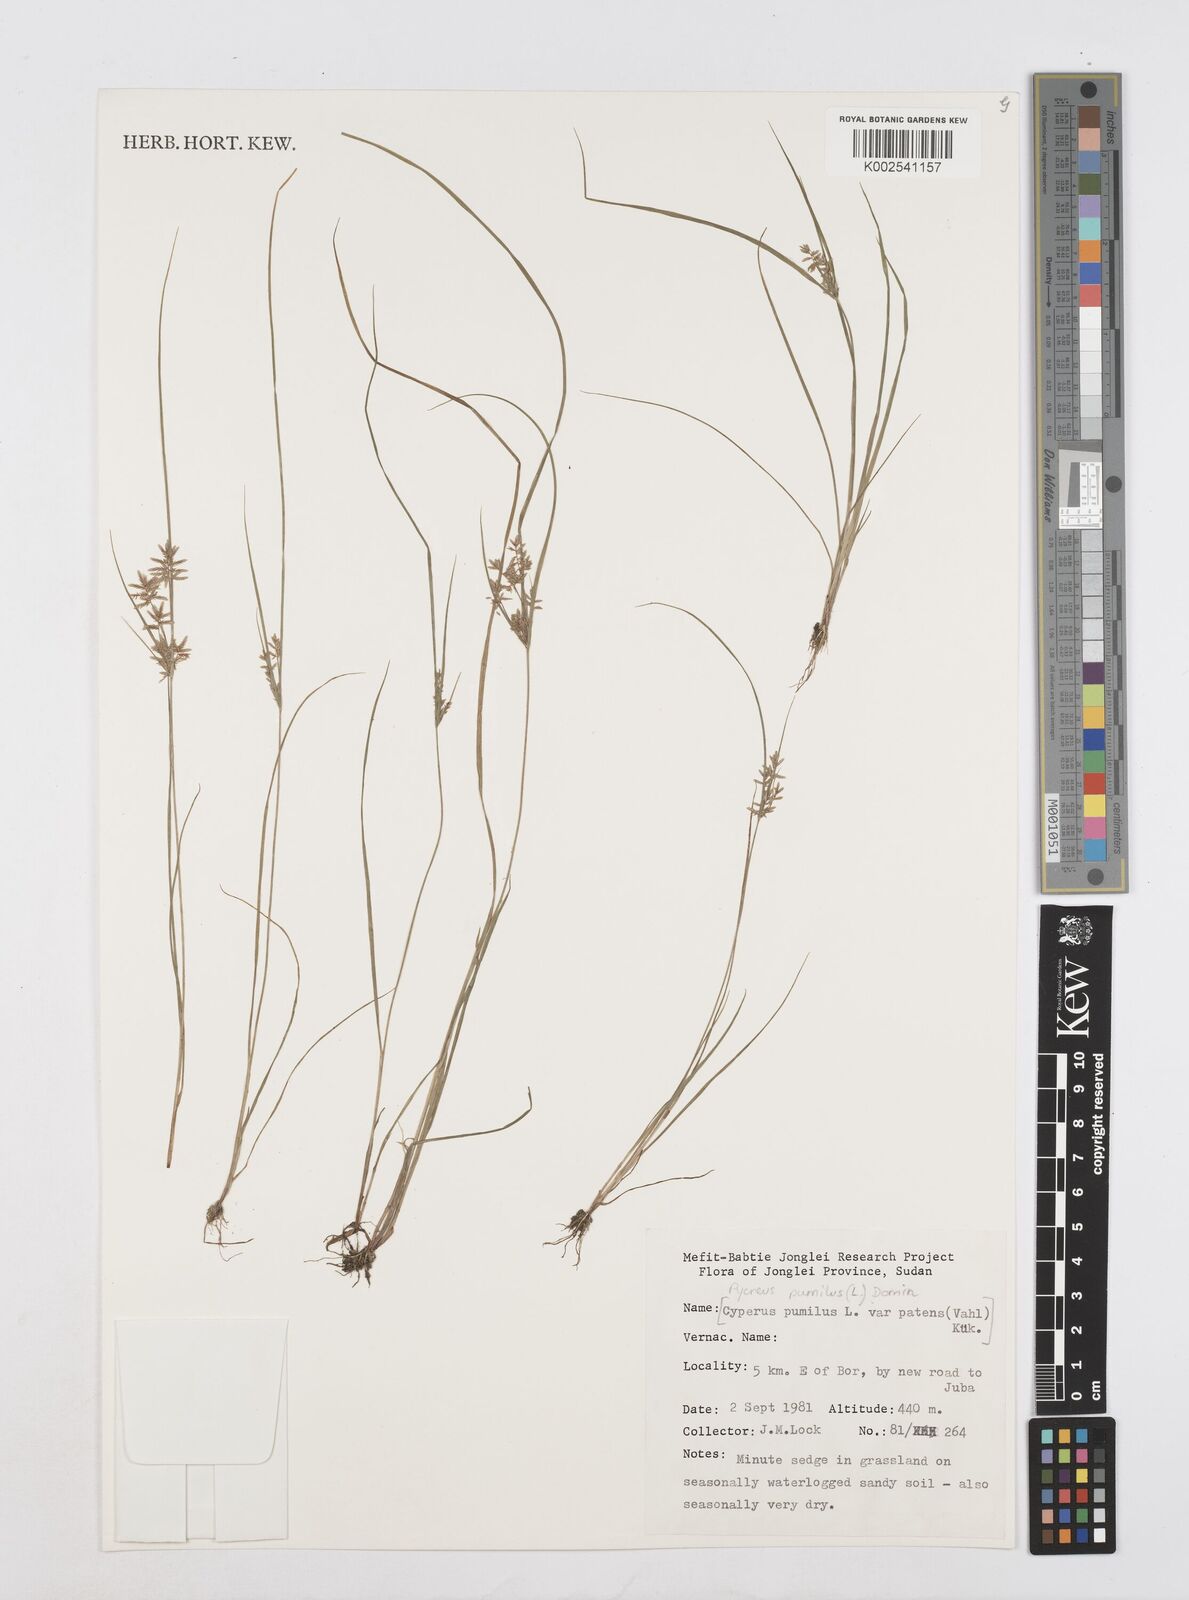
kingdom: Plantae
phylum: Tracheophyta
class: Liliopsida
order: Poales
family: Cyperaceae
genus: Cyperus
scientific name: Cyperus pumilus
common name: Low flatsedge
